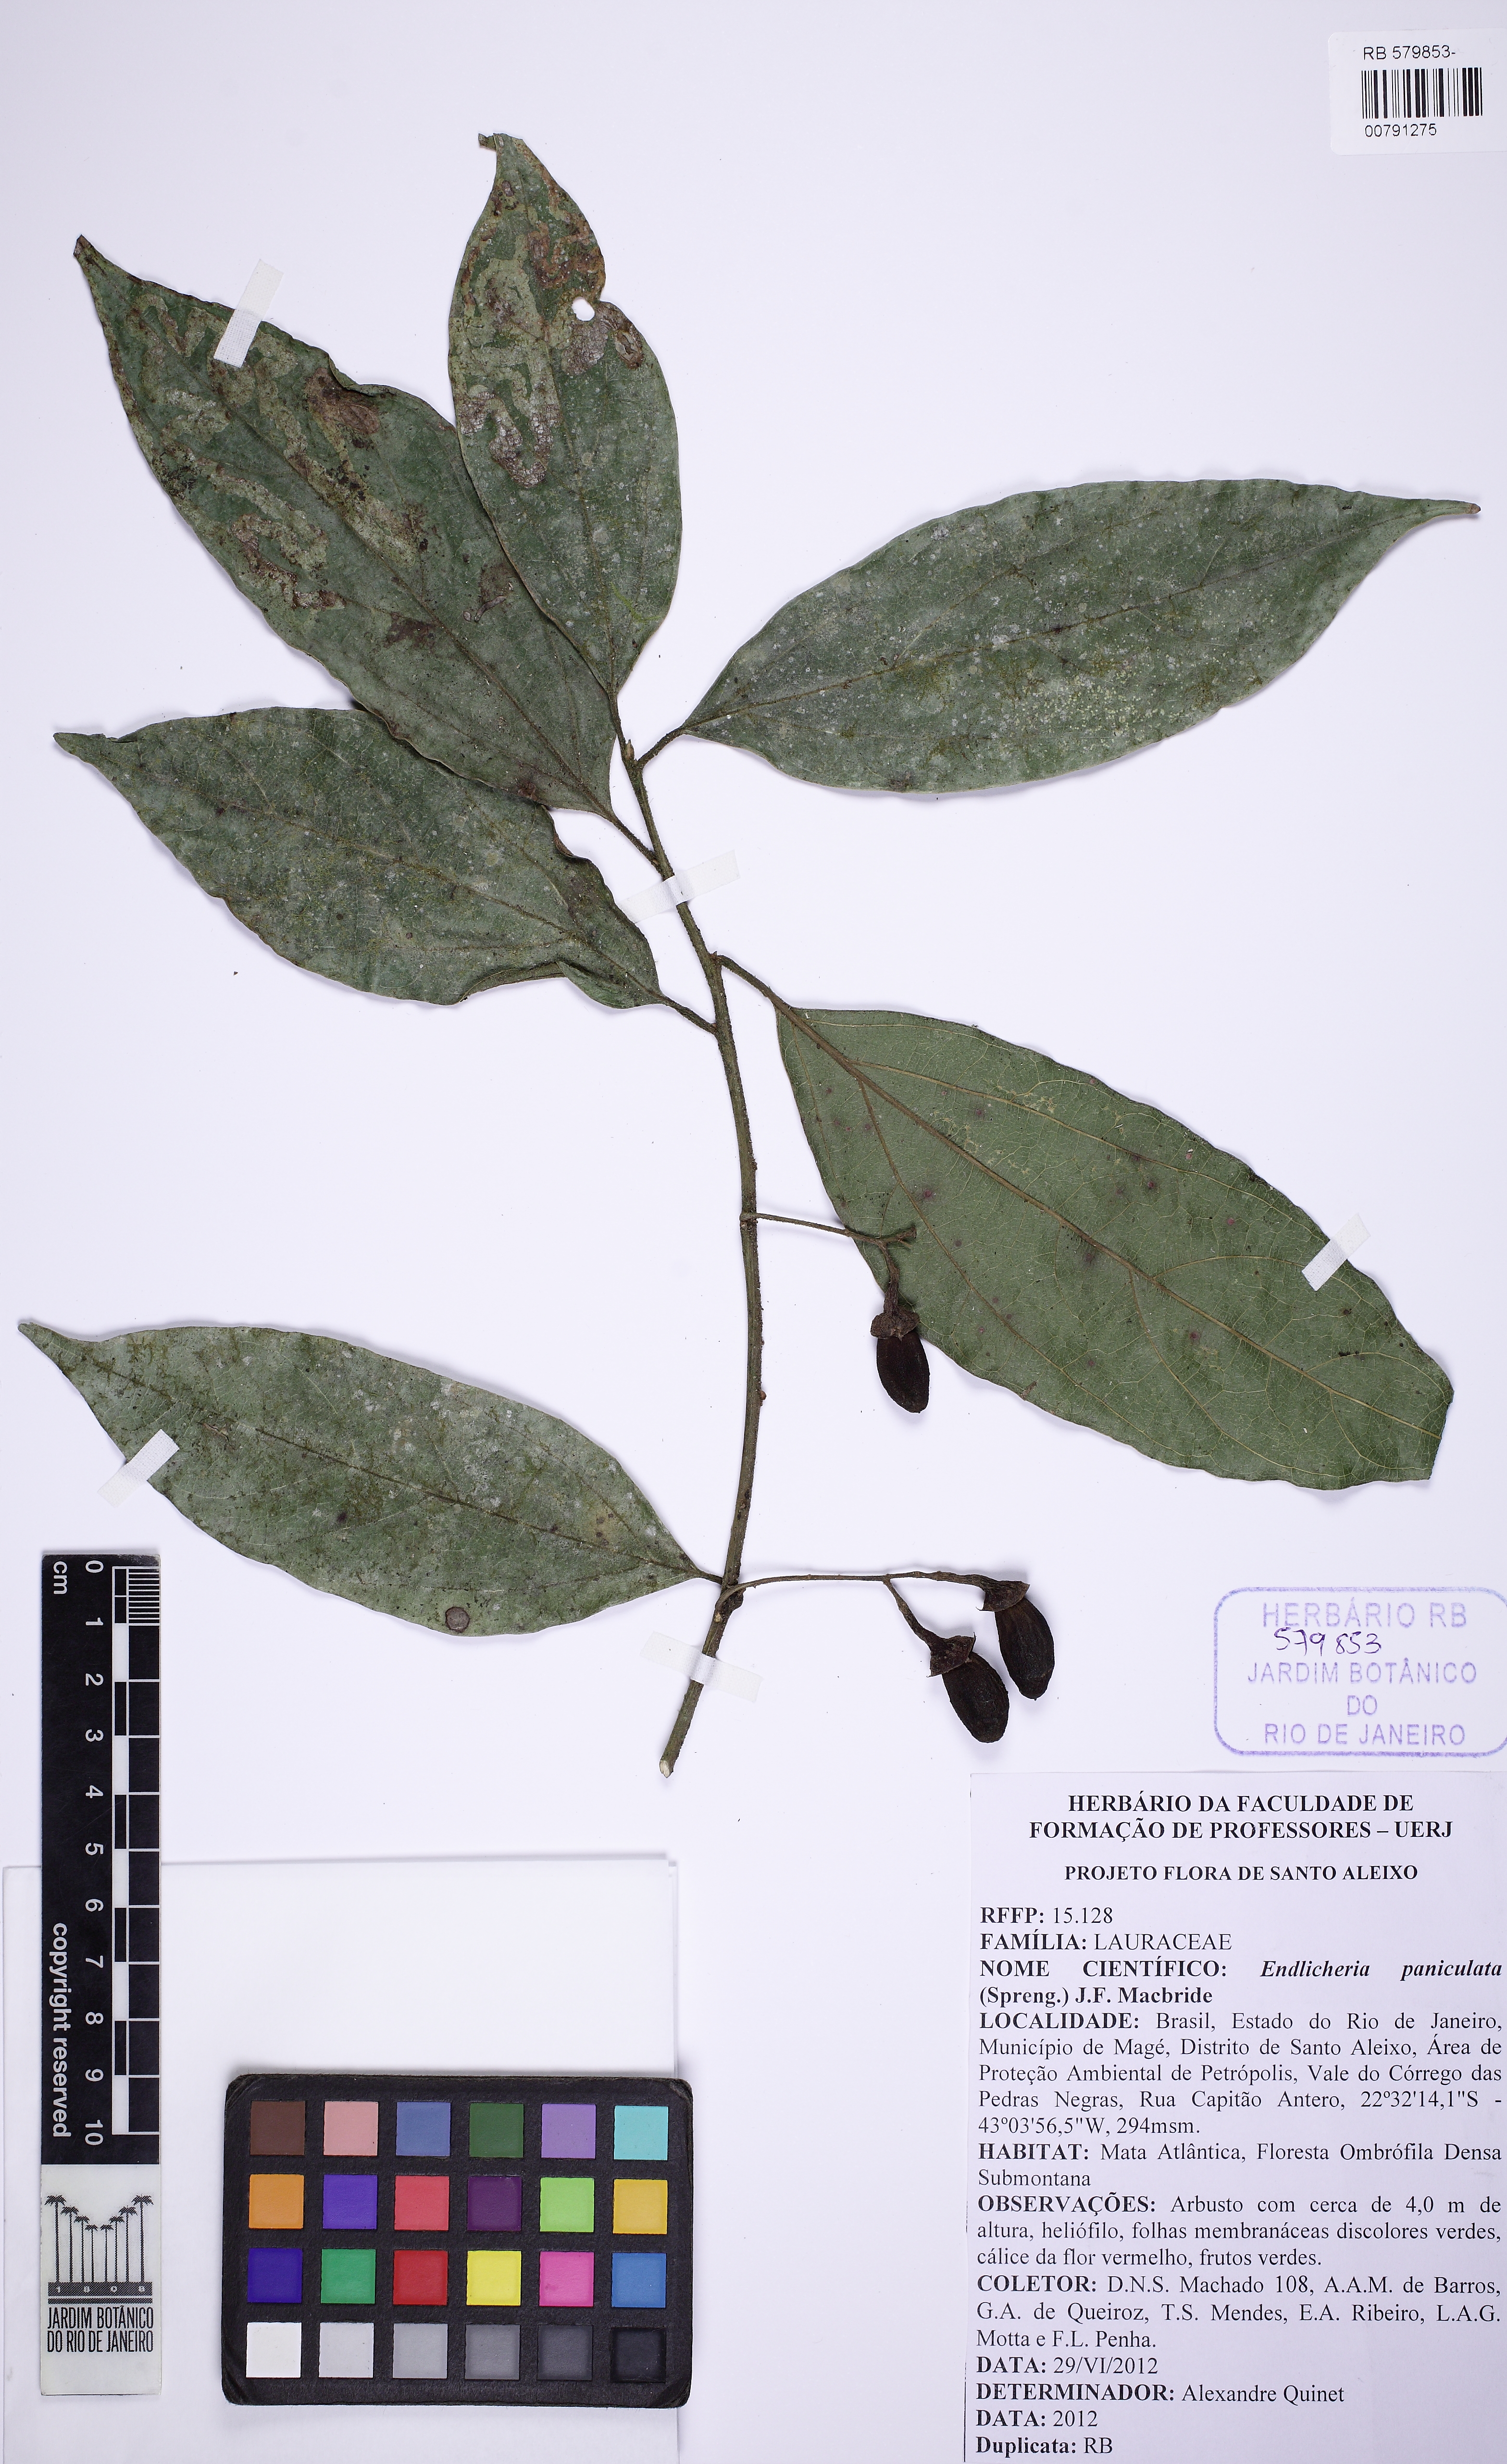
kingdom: Plantae
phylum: Tracheophyta
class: Magnoliopsida
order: Laurales
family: Lauraceae
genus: Endlicheria
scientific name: Endlicheria paniculata
